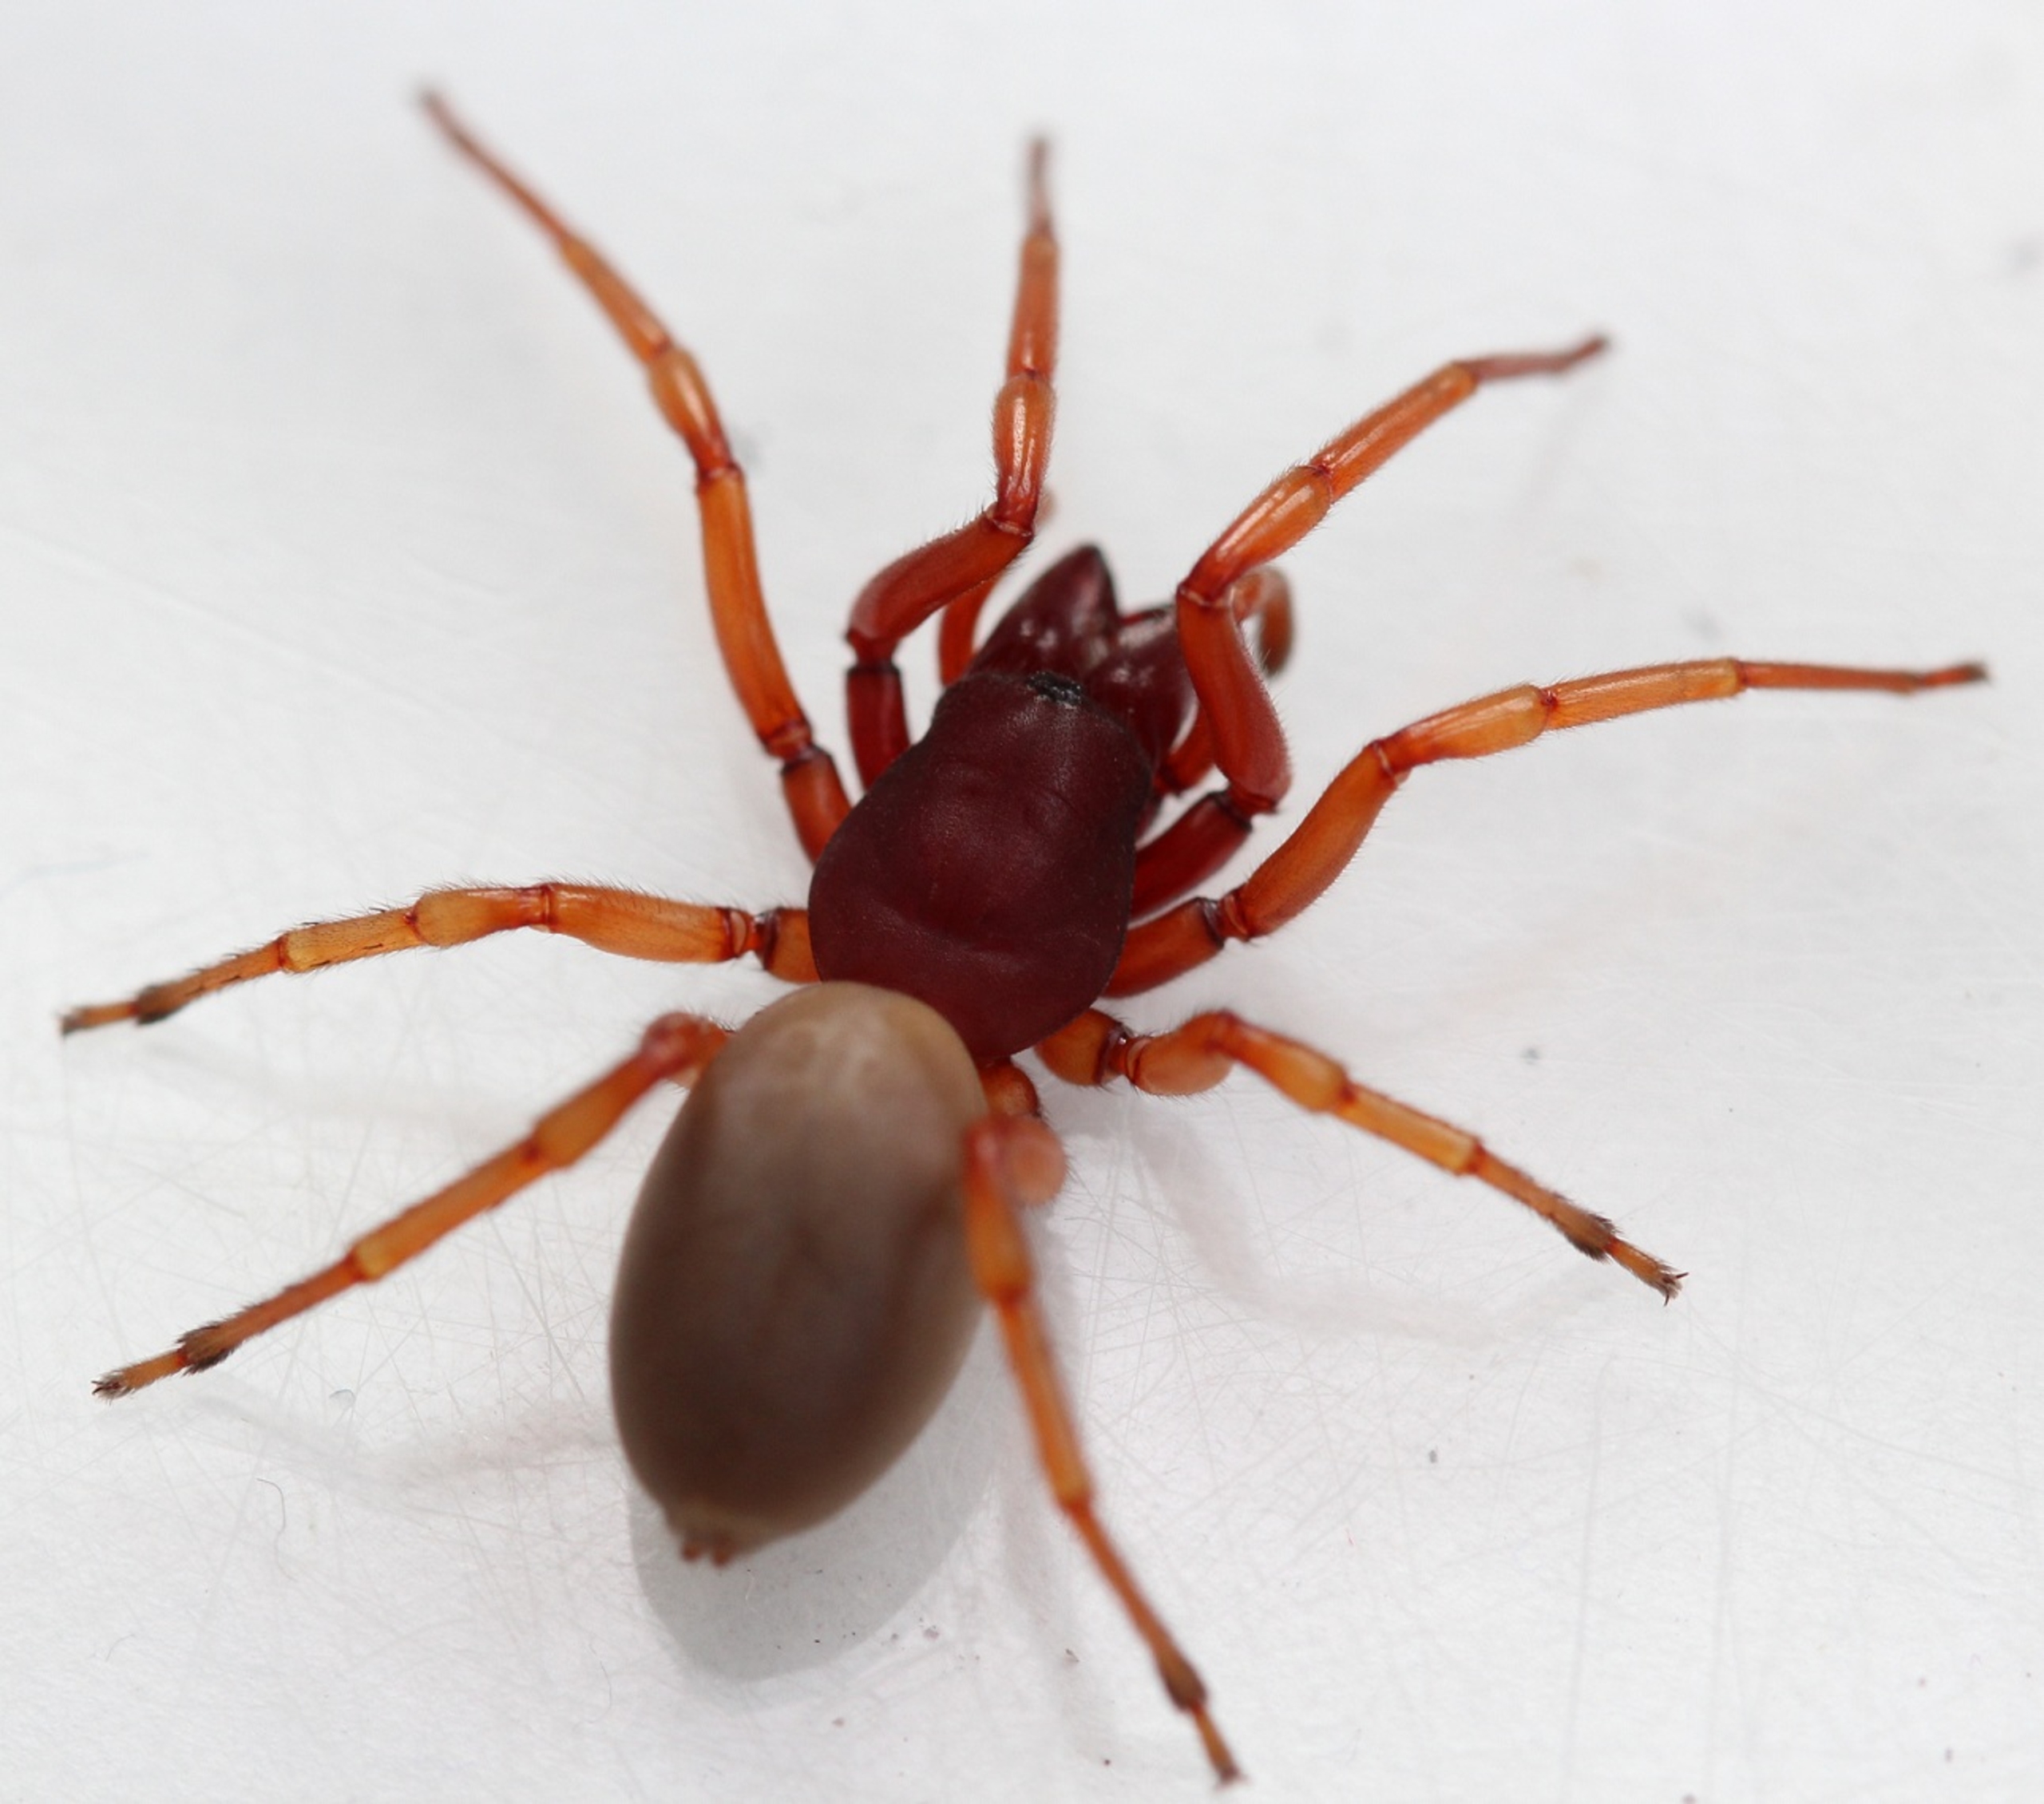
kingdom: Animalia
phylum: Arthropoda
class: Arachnida
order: Araneae
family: Dysderidae
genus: Dysdera
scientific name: Dysdera crocata
